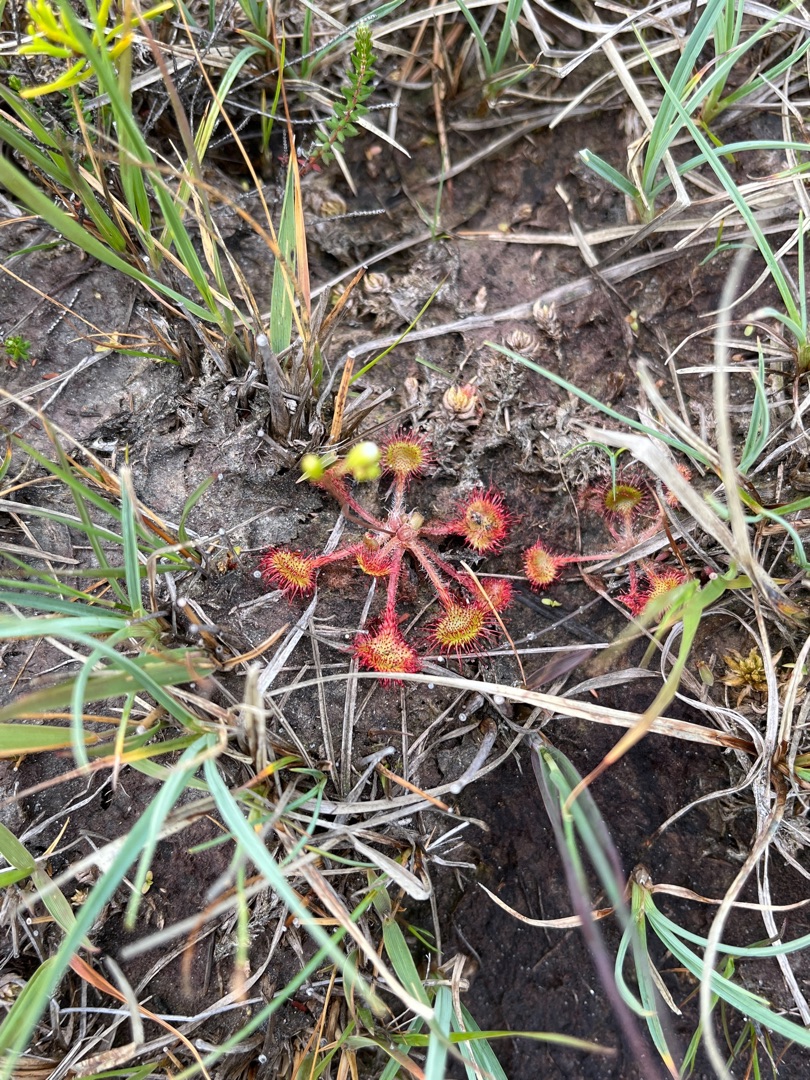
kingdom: Plantae
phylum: Tracheophyta
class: Magnoliopsida
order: Caryophyllales
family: Droseraceae
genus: Drosera
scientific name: Drosera rotundifolia
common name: Rundbladet soldug
